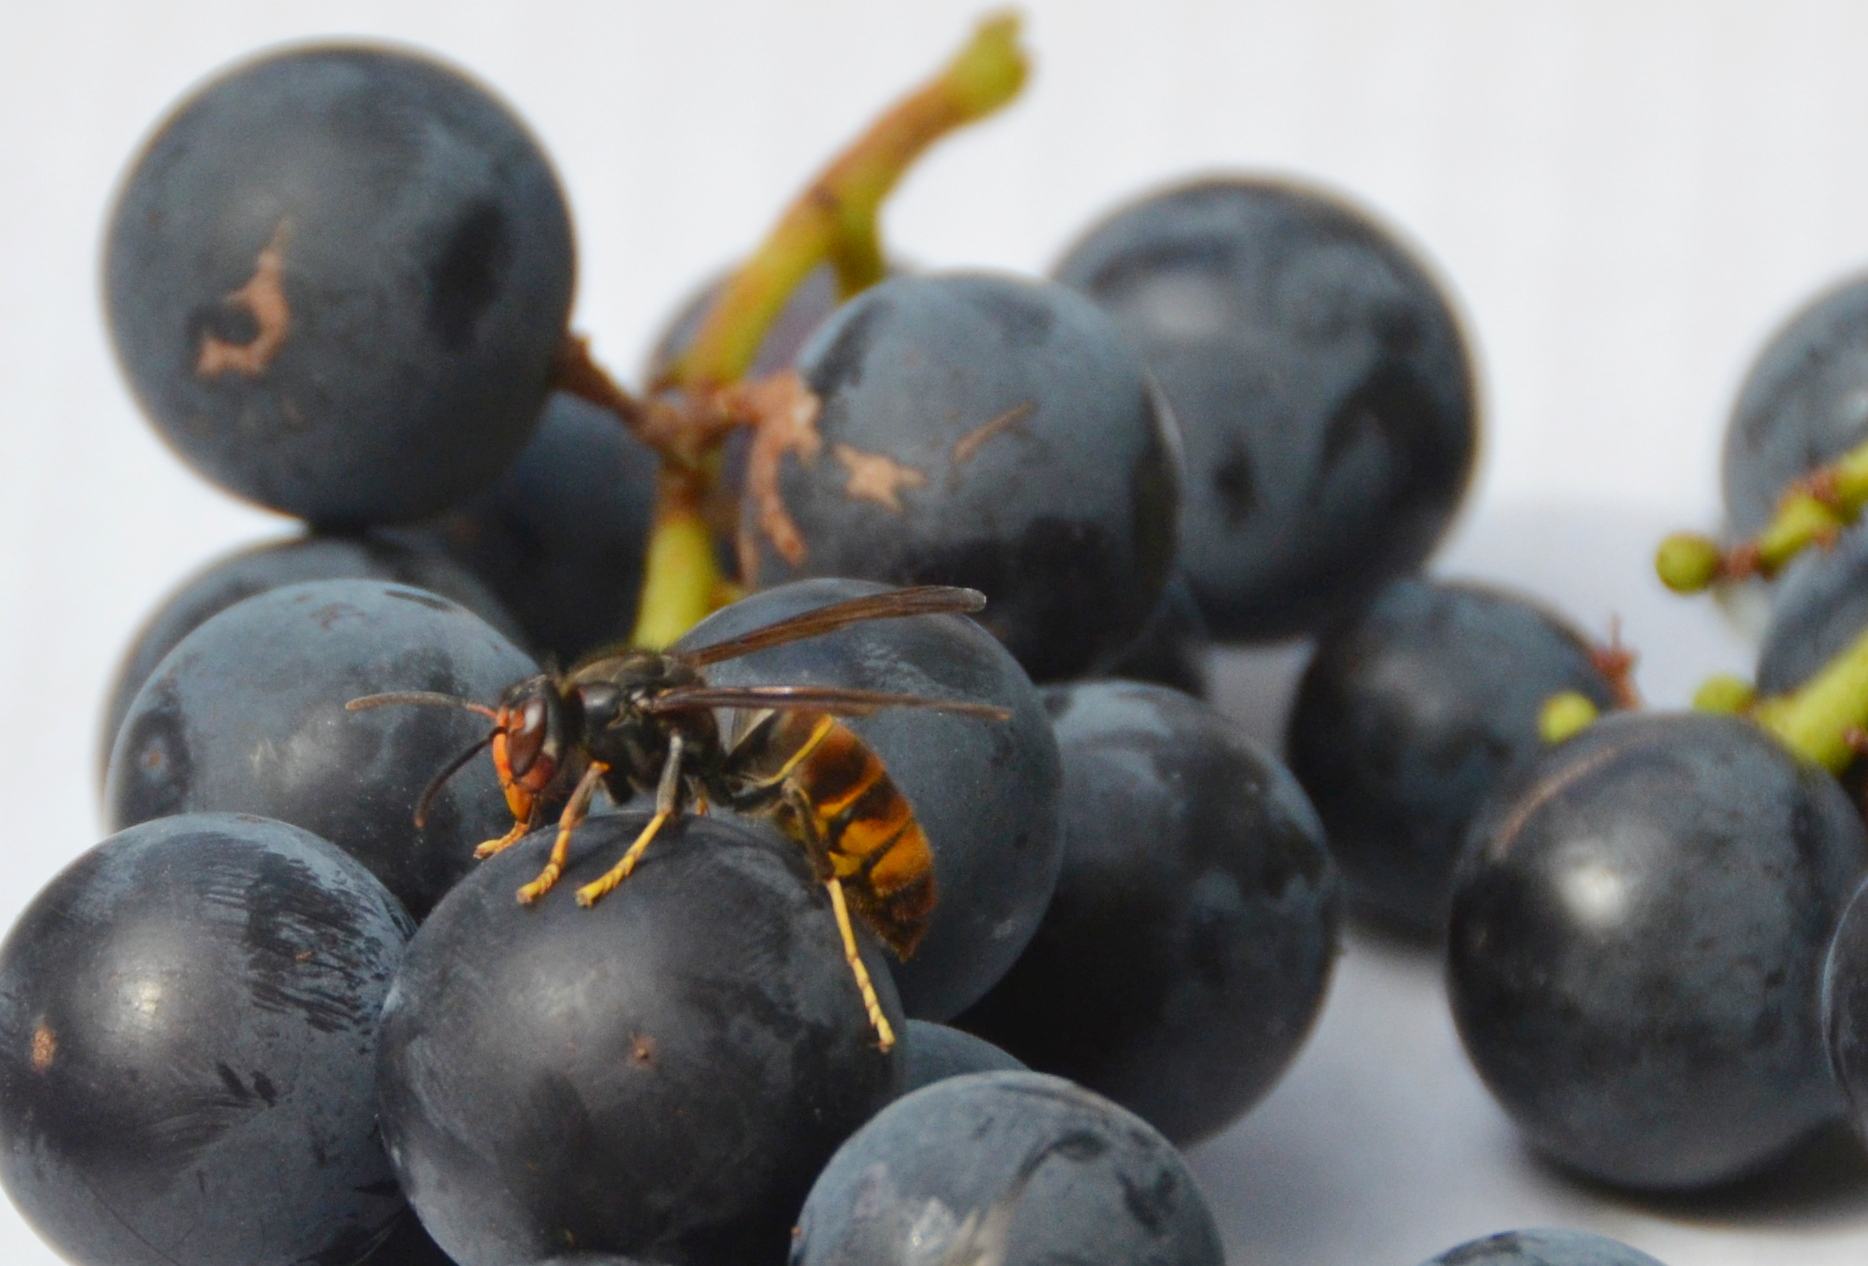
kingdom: Animalia
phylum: Arthropoda
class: Insecta
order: Hymenoptera
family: Vespidae
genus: Vespa
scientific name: Vespa velutina
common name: Asian hornet
